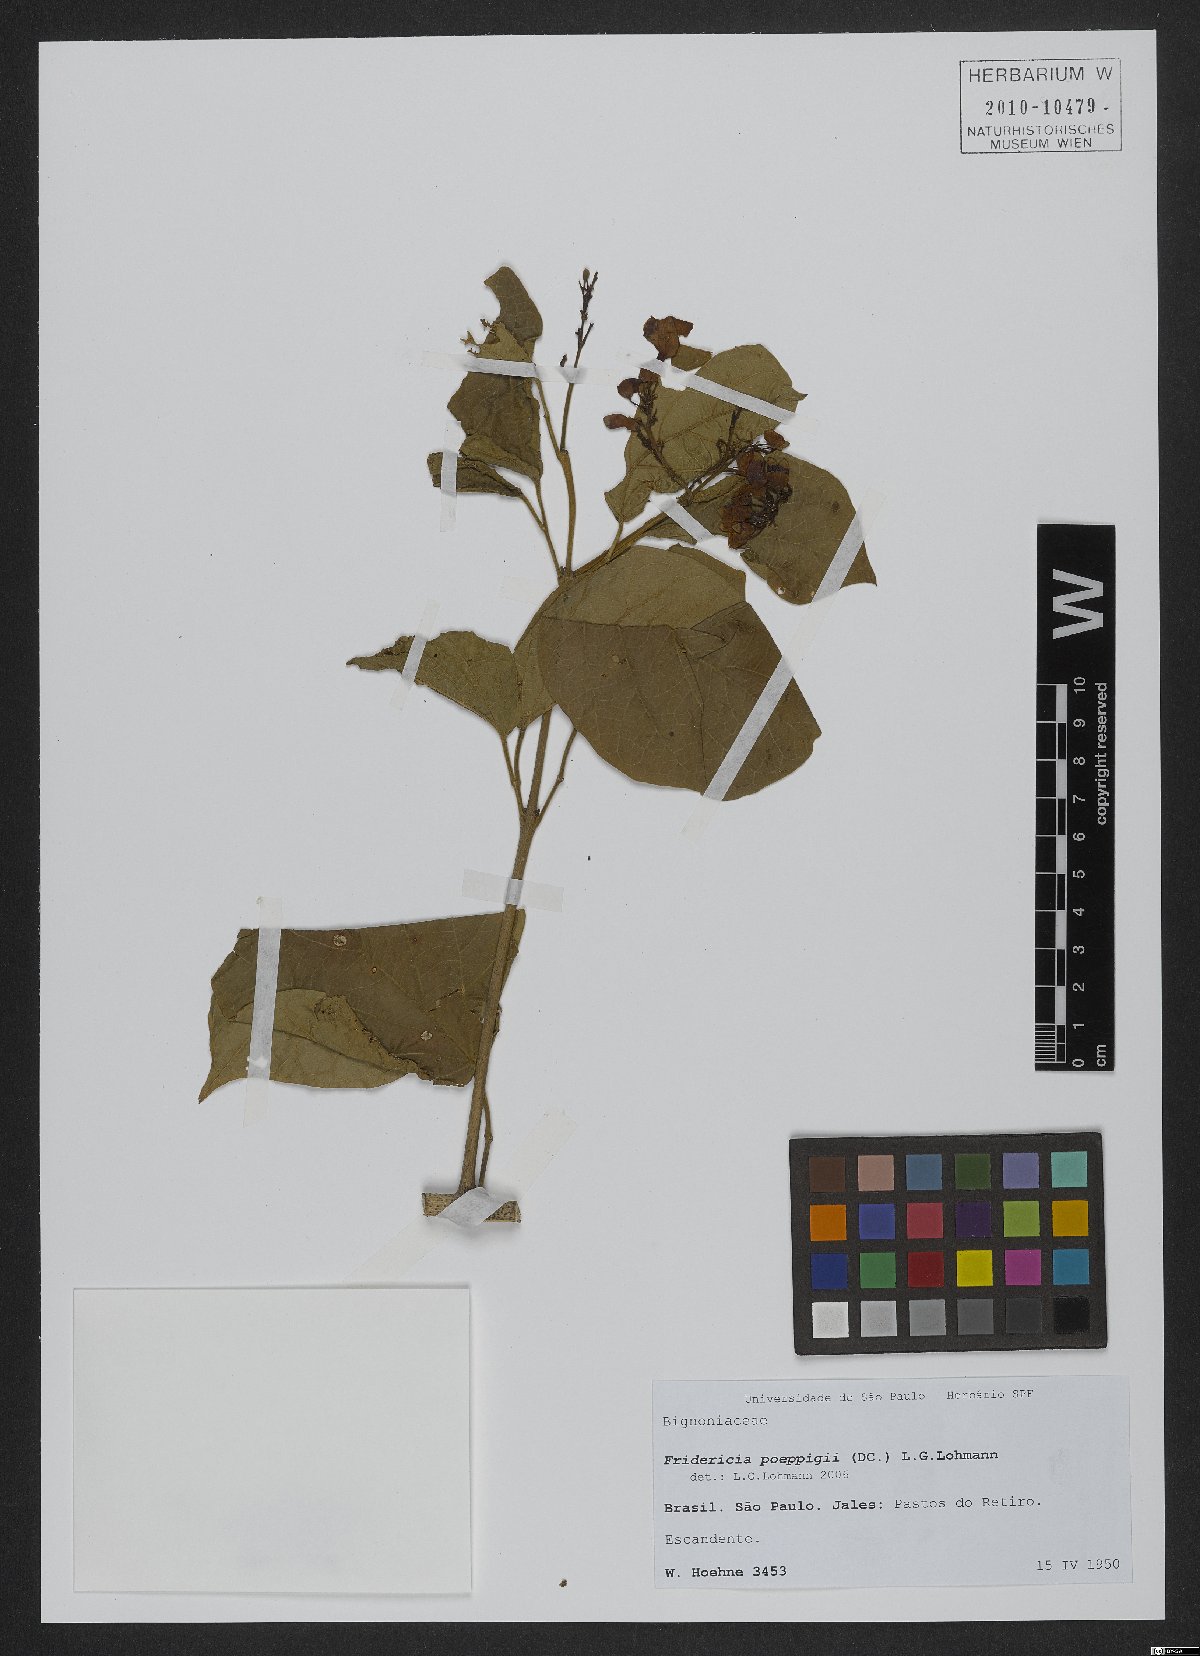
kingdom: Plantae
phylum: Tracheophyta
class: Magnoliopsida
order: Lamiales
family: Bignoniaceae
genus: Fridericia
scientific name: Fridericia poeppigii
